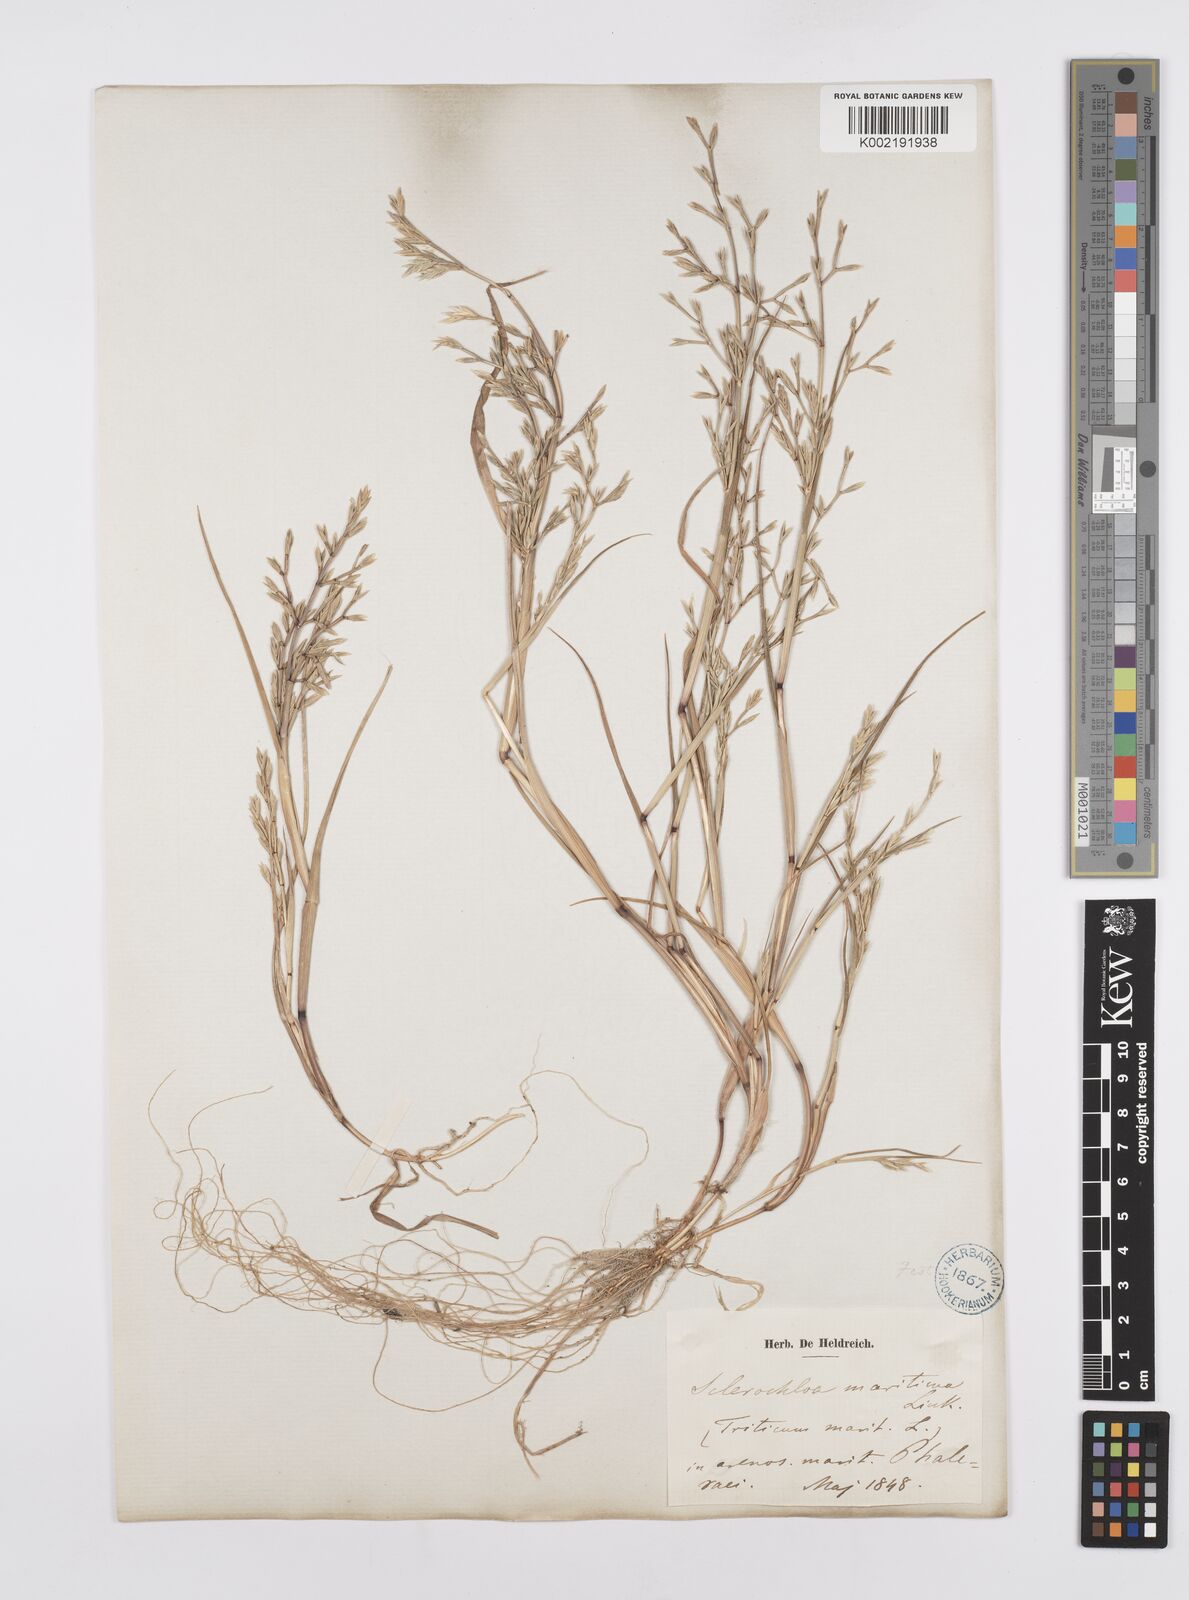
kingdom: Plantae
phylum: Tracheophyta
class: Liliopsida
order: Poales
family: Poaceae
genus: Cutandia
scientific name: Cutandia maritima
